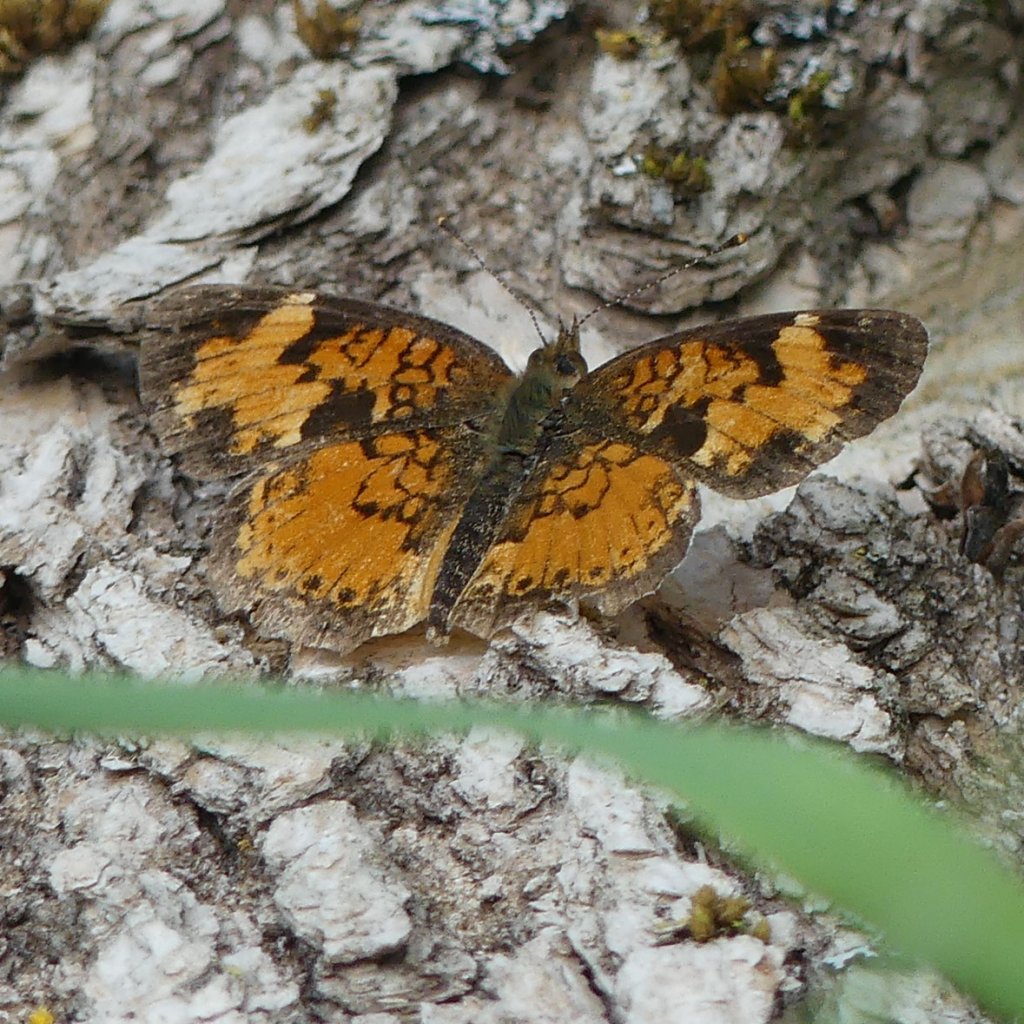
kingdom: Animalia
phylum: Arthropoda
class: Insecta
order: Lepidoptera
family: Nymphalidae
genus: Phyciodes
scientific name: Phyciodes tharos
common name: Northern Crescent
